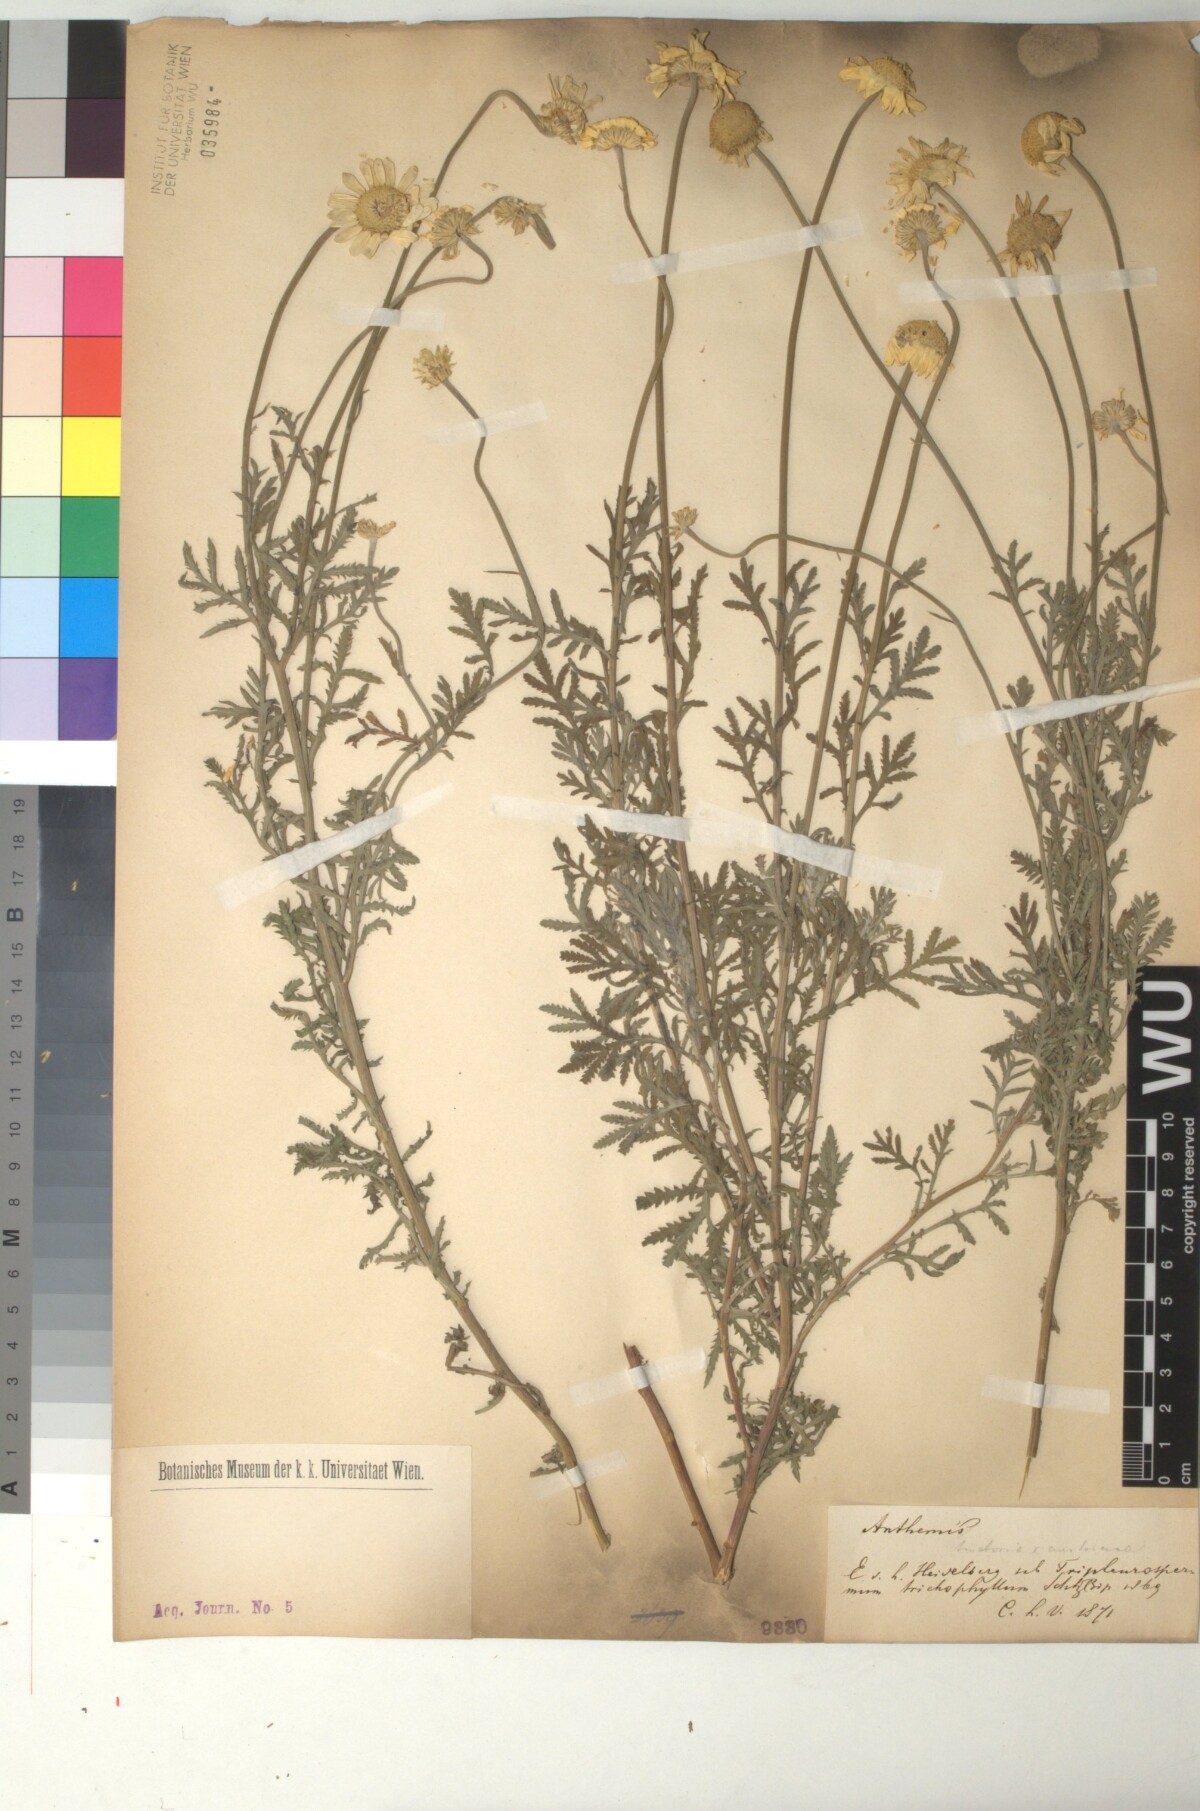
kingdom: Plantae
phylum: Tracheophyta
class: Magnoliopsida
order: Asterales
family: Asteraceae
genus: Cota
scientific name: Cota austriaca
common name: Austrian chamomile
